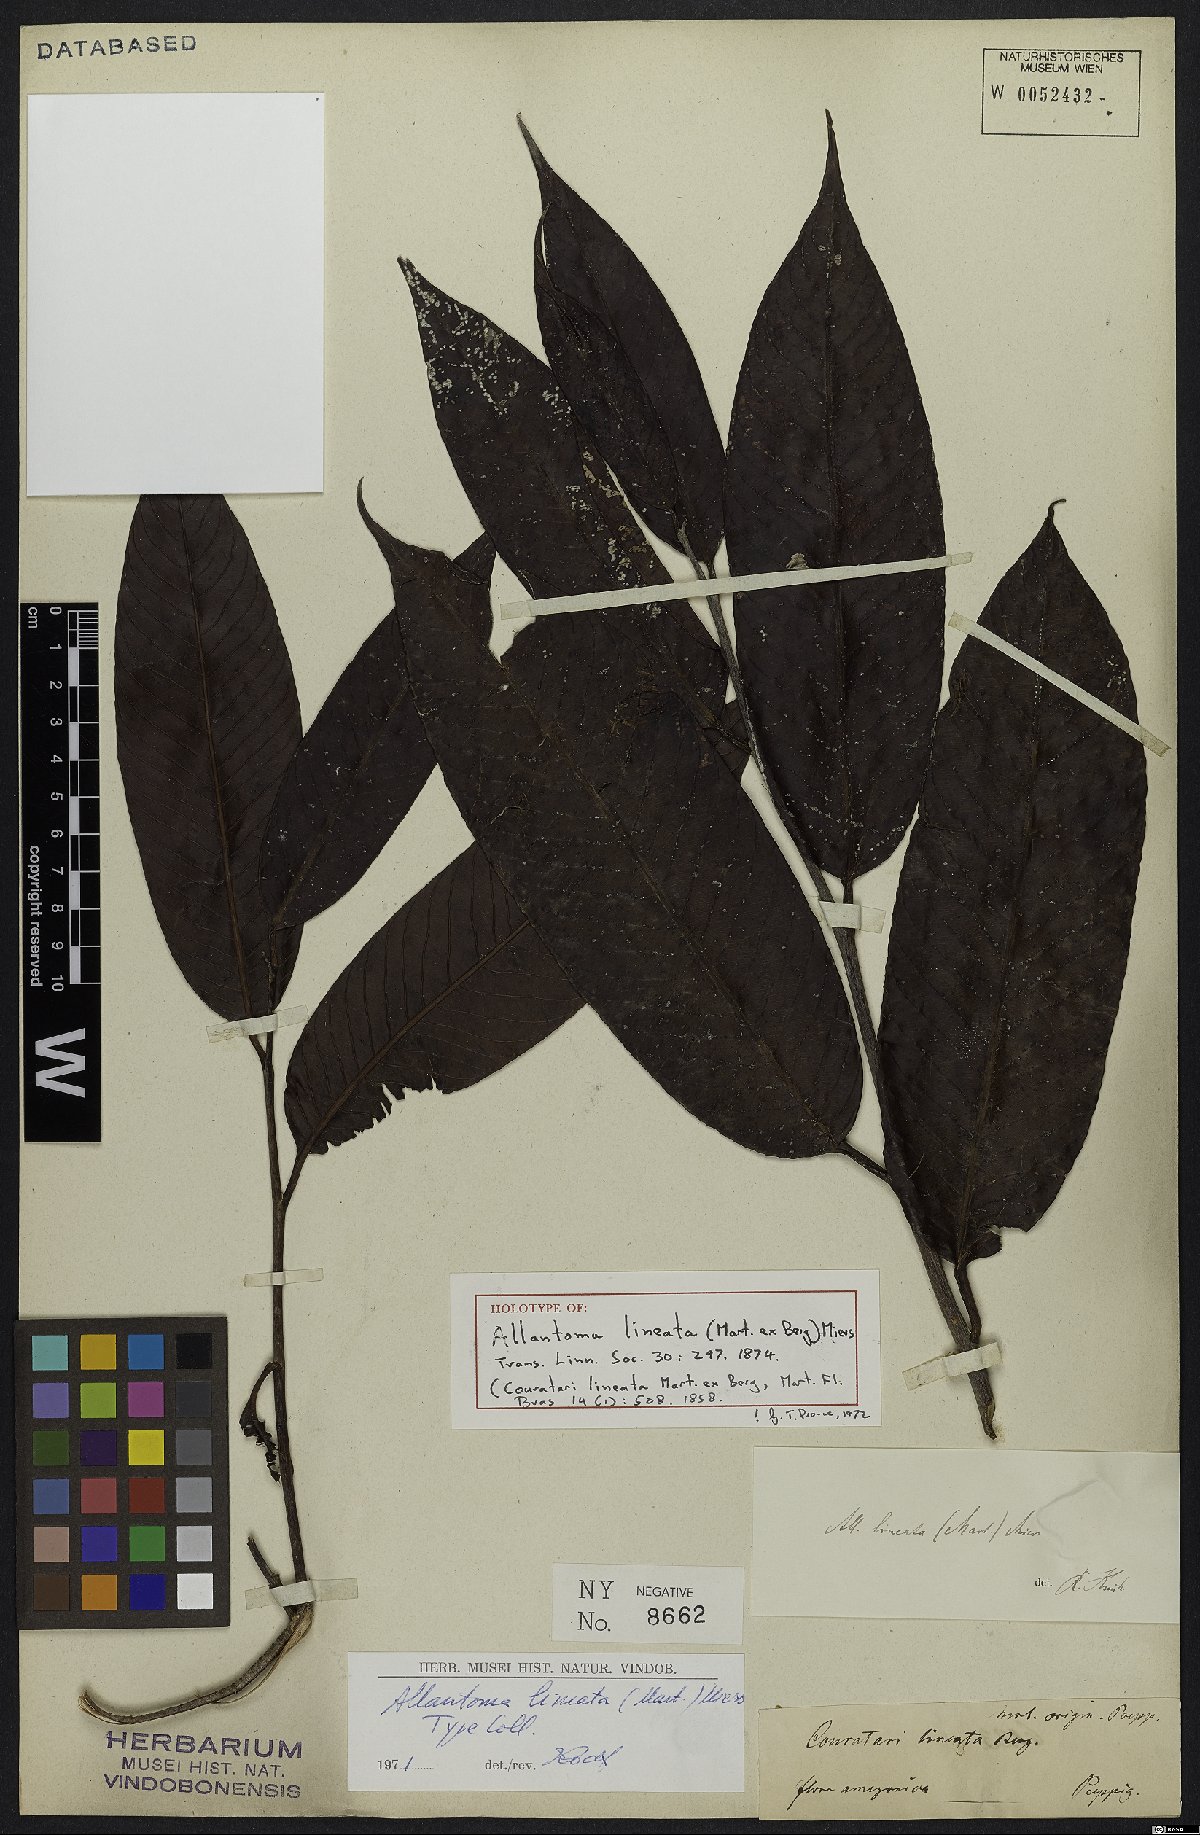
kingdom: Plantae
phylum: Tracheophyta
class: Magnoliopsida
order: Ericales
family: Lecythidaceae
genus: Allantoma
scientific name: Allantoma lineata
